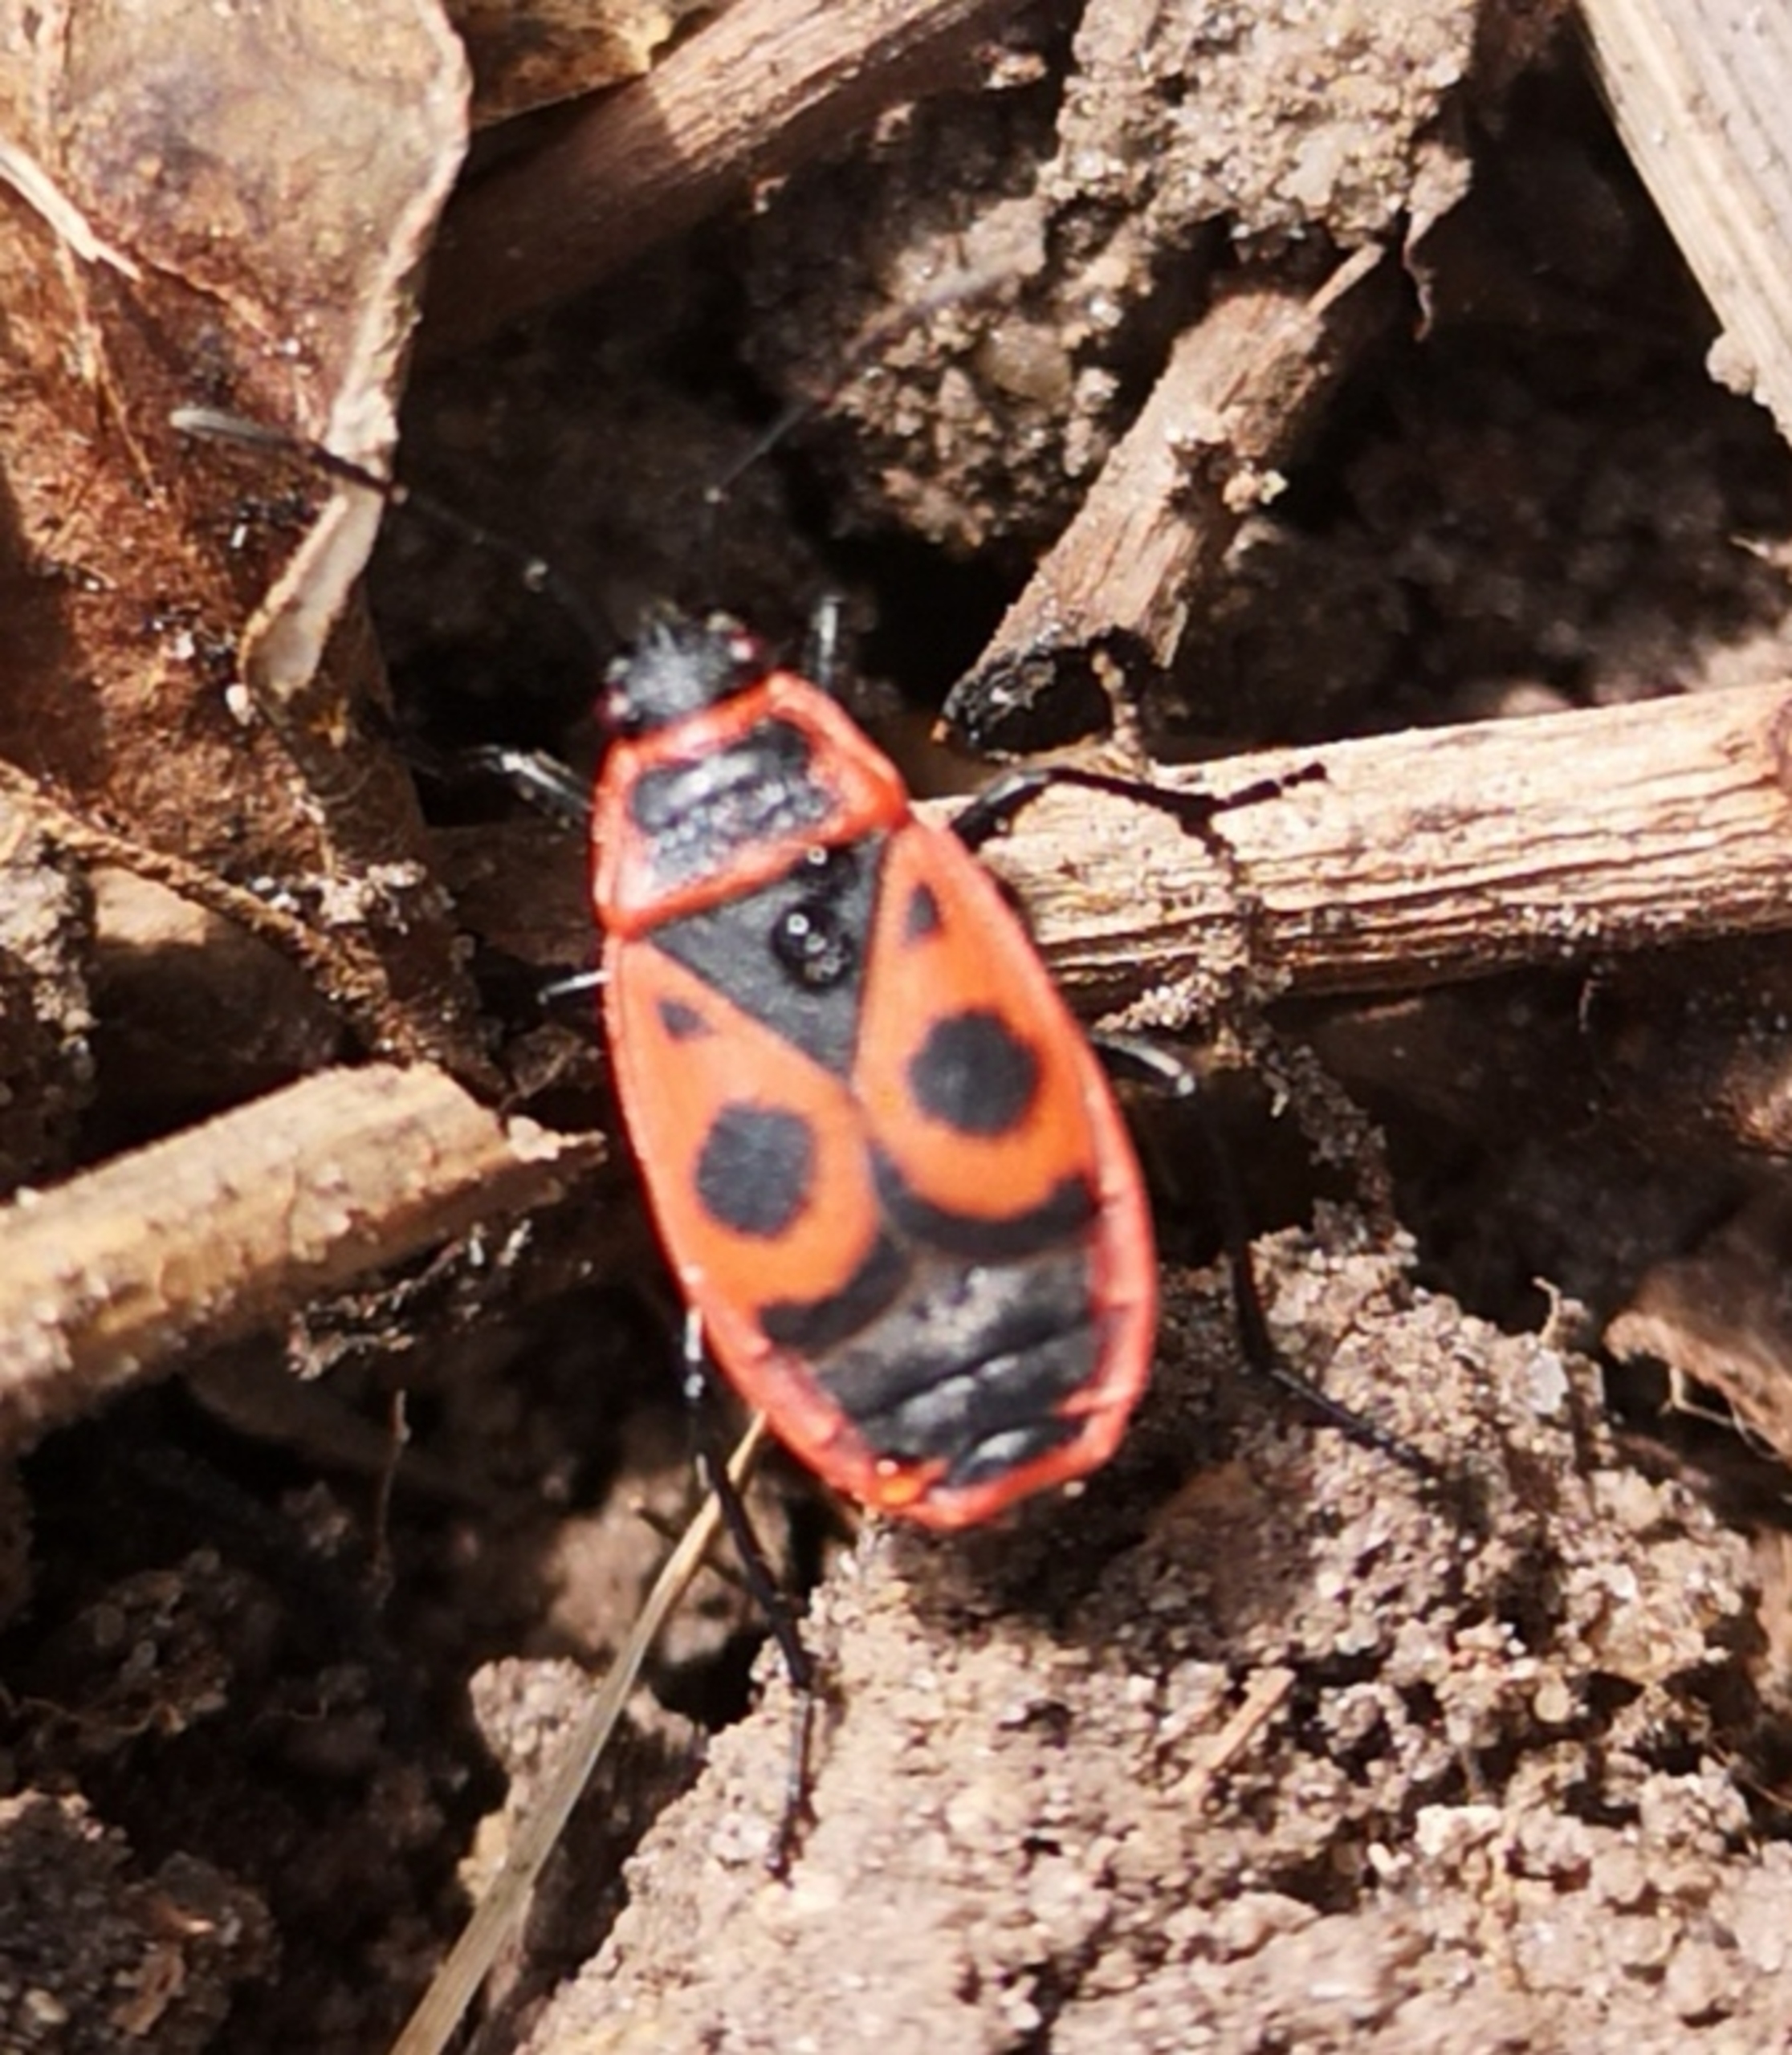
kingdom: Animalia
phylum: Arthropoda
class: Insecta
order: Hemiptera
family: Pyrrhocoridae
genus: Pyrrhocoris
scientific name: Pyrrhocoris apterus
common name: Ildtæge
